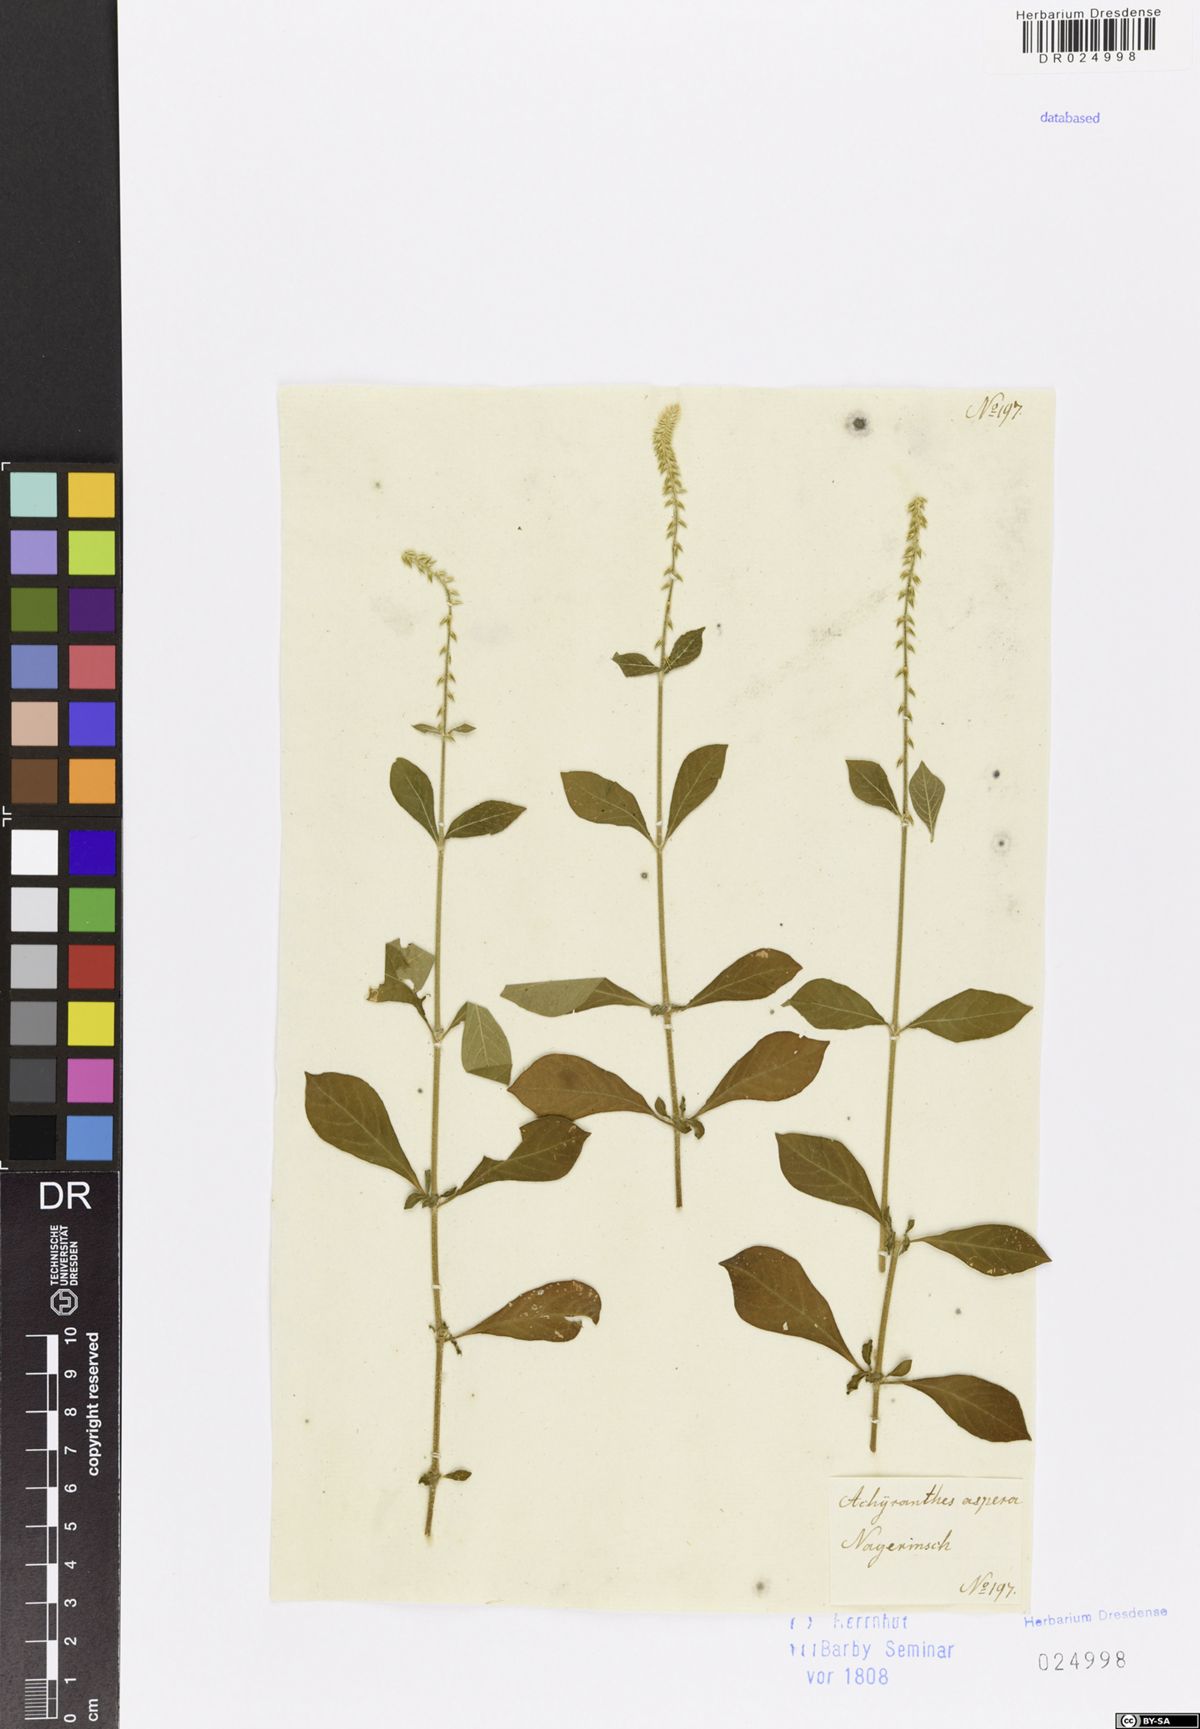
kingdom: Plantae
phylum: Tracheophyta
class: Magnoliopsida
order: Caryophyllales
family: Amaranthaceae
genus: Achyranthes
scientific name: Achyranthes aspera
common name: Devil's horsewhip
